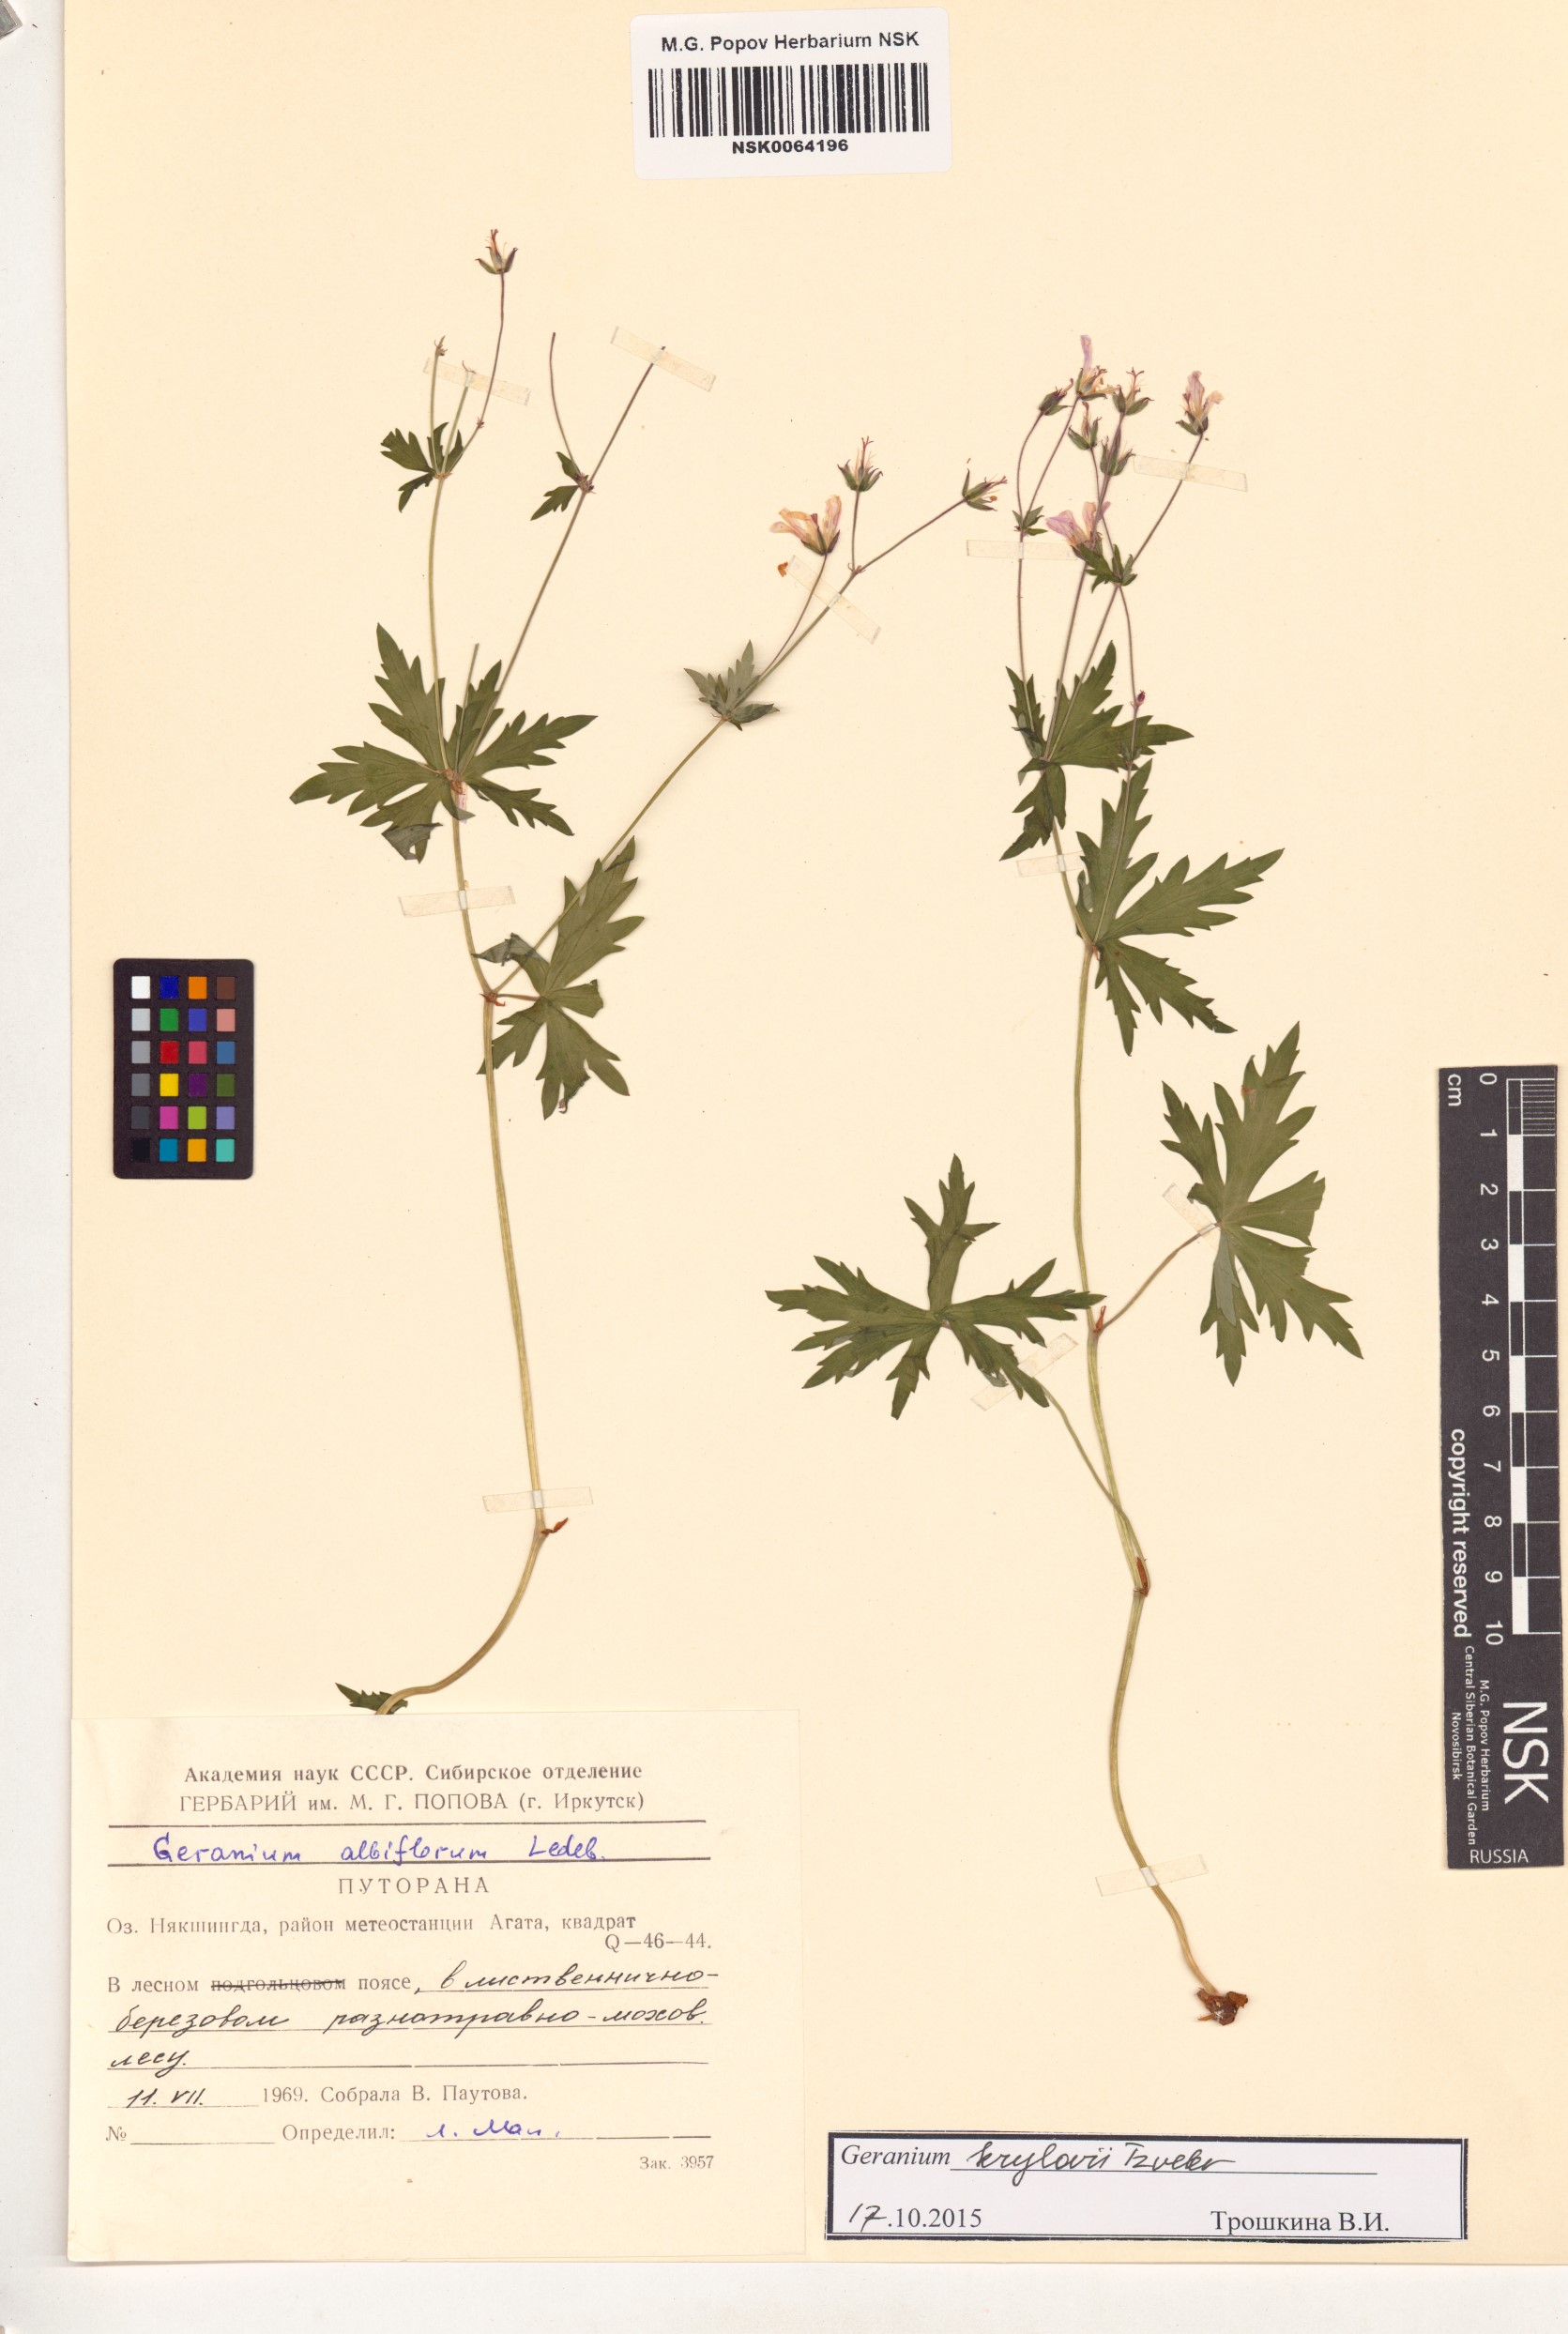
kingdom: Plantae
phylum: Tracheophyta
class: Magnoliopsida
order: Geraniales
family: Geraniaceae
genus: Geranium
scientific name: Geranium sylvaticum
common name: Wood crane's-bill
